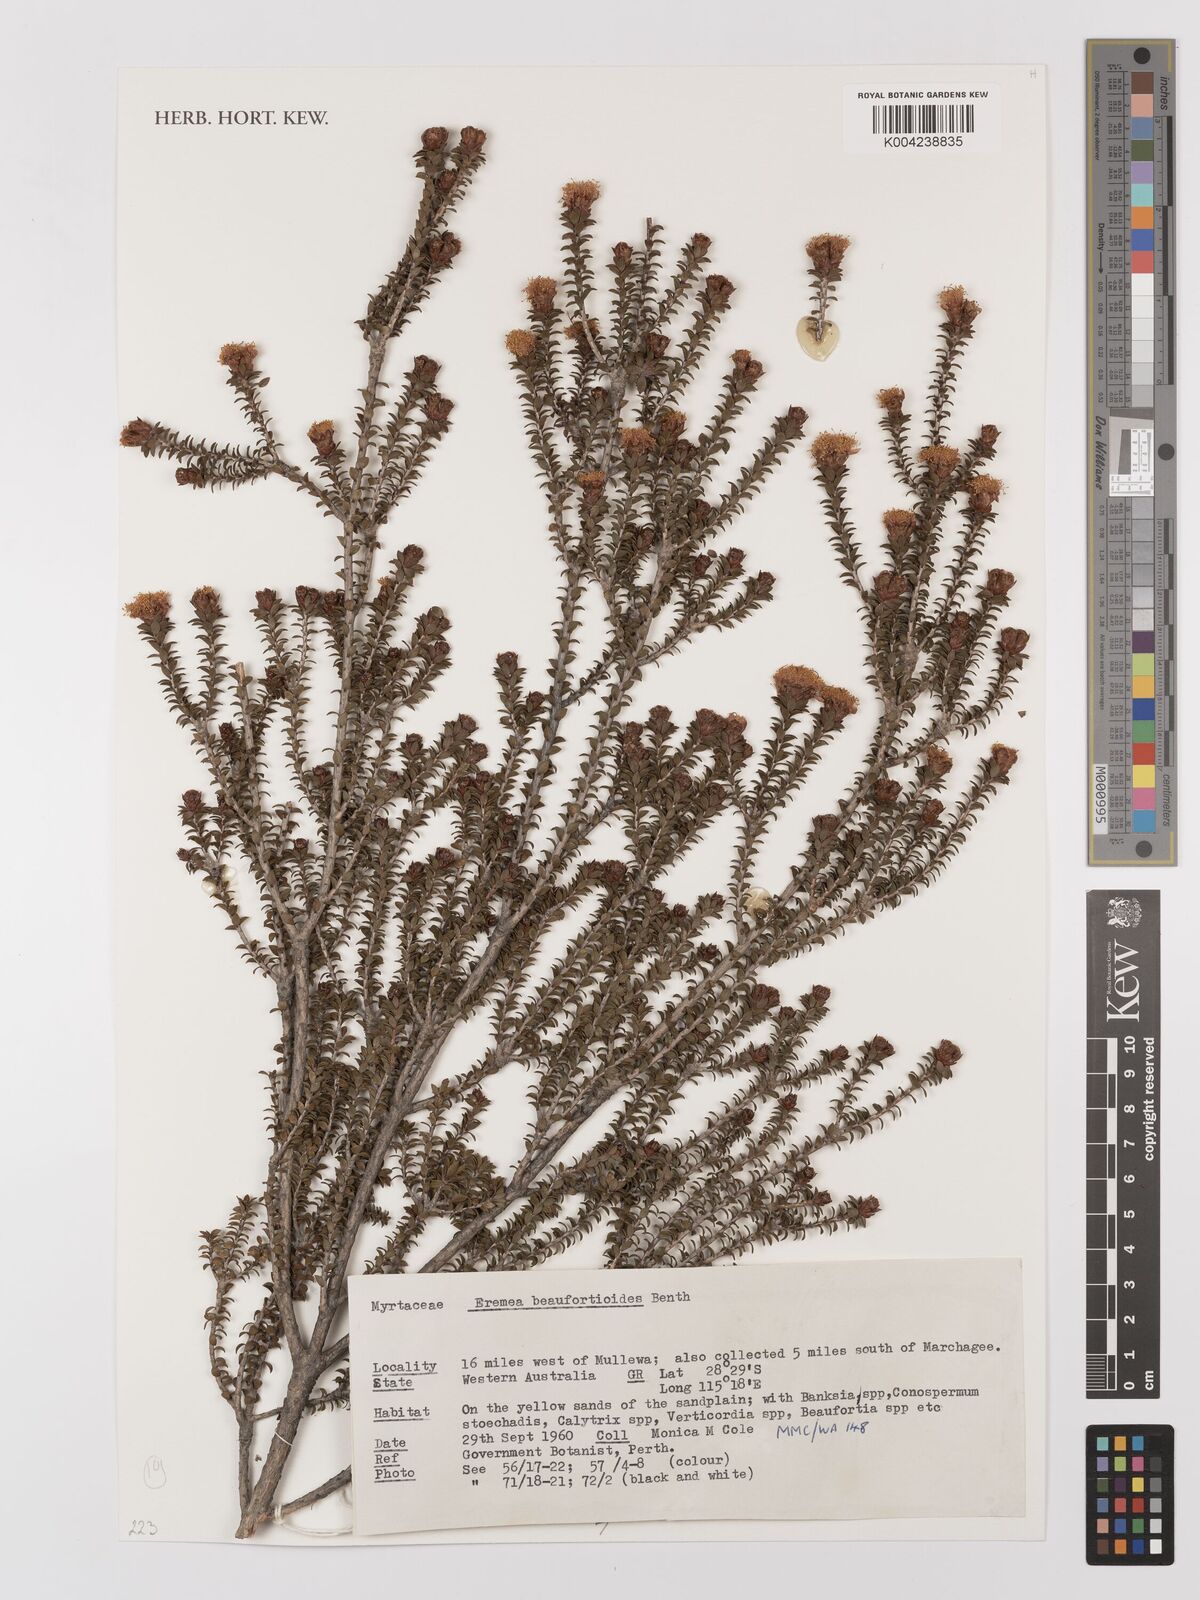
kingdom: Plantae
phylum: Tracheophyta
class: Magnoliopsida
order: Myrtales
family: Myrtaceae
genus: Melaleuca
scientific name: Melaleuca beaufortioides
